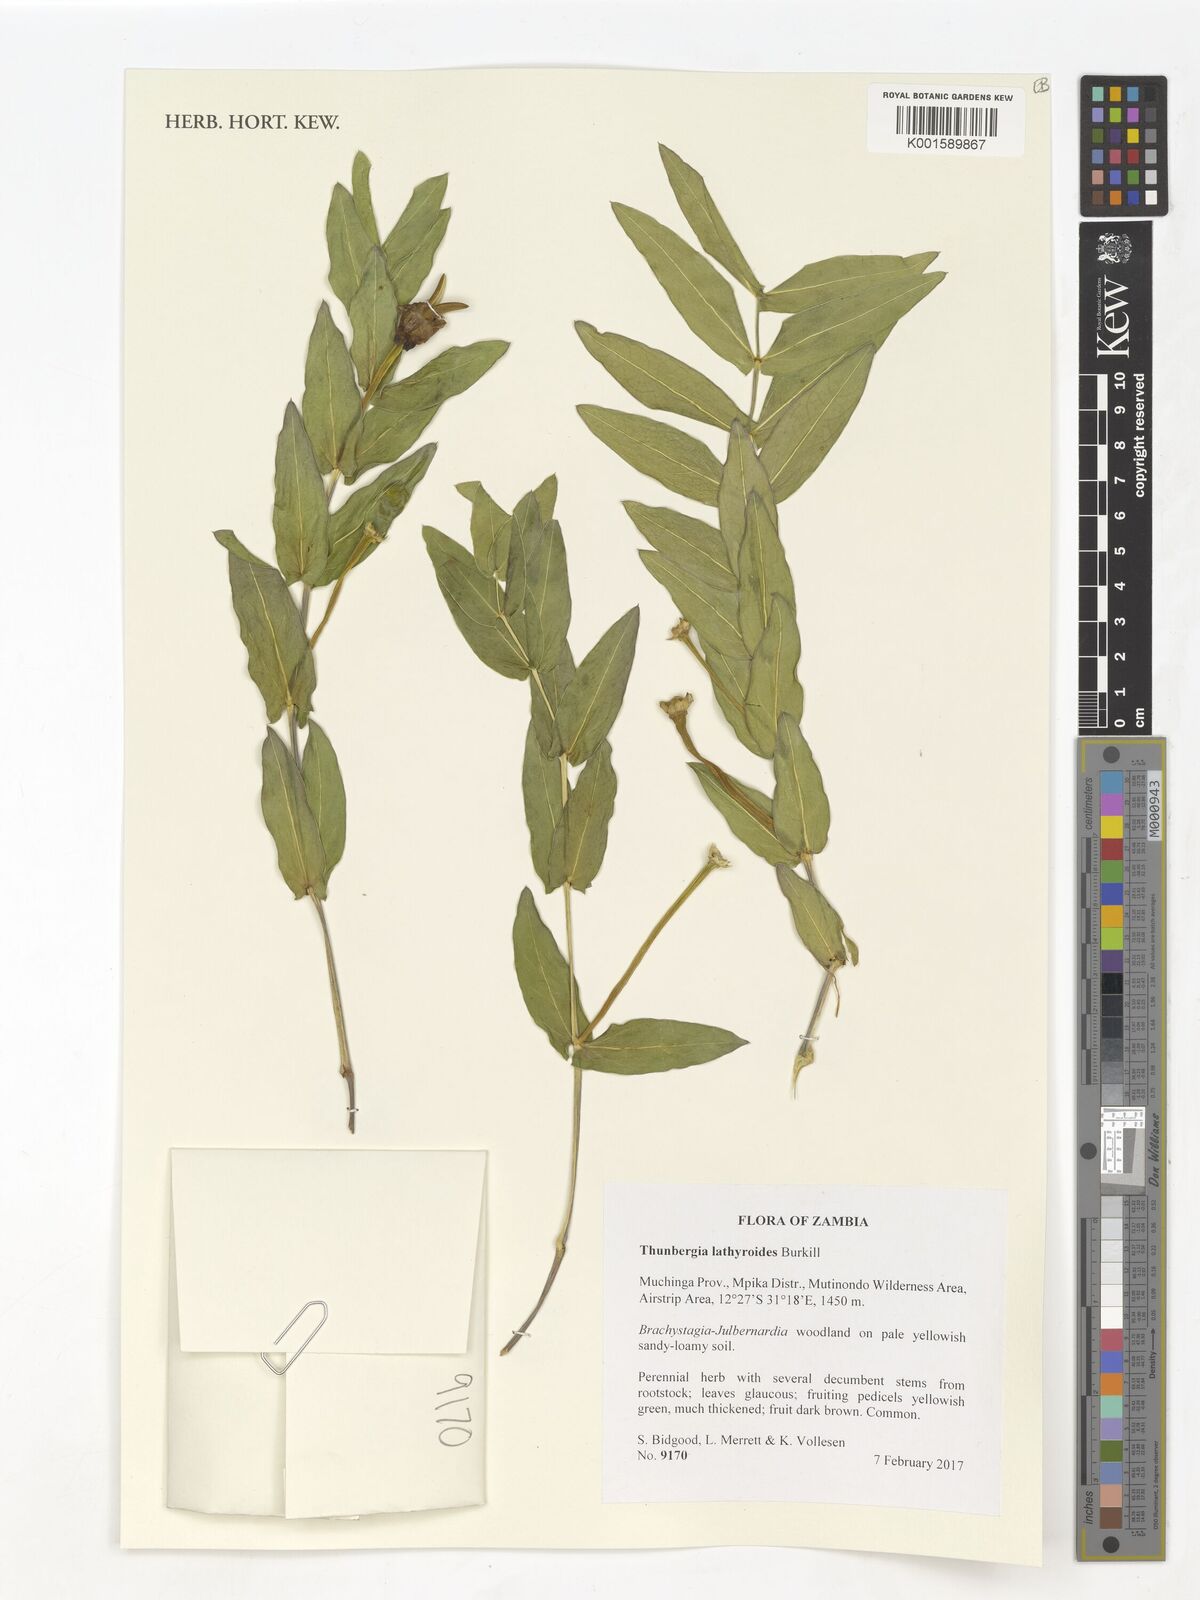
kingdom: Plantae
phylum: Tracheophyta
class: Magnoliopsida
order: Lamiales
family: Acanthaceae
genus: Thunbergia
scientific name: Thunbergia lathyroides
